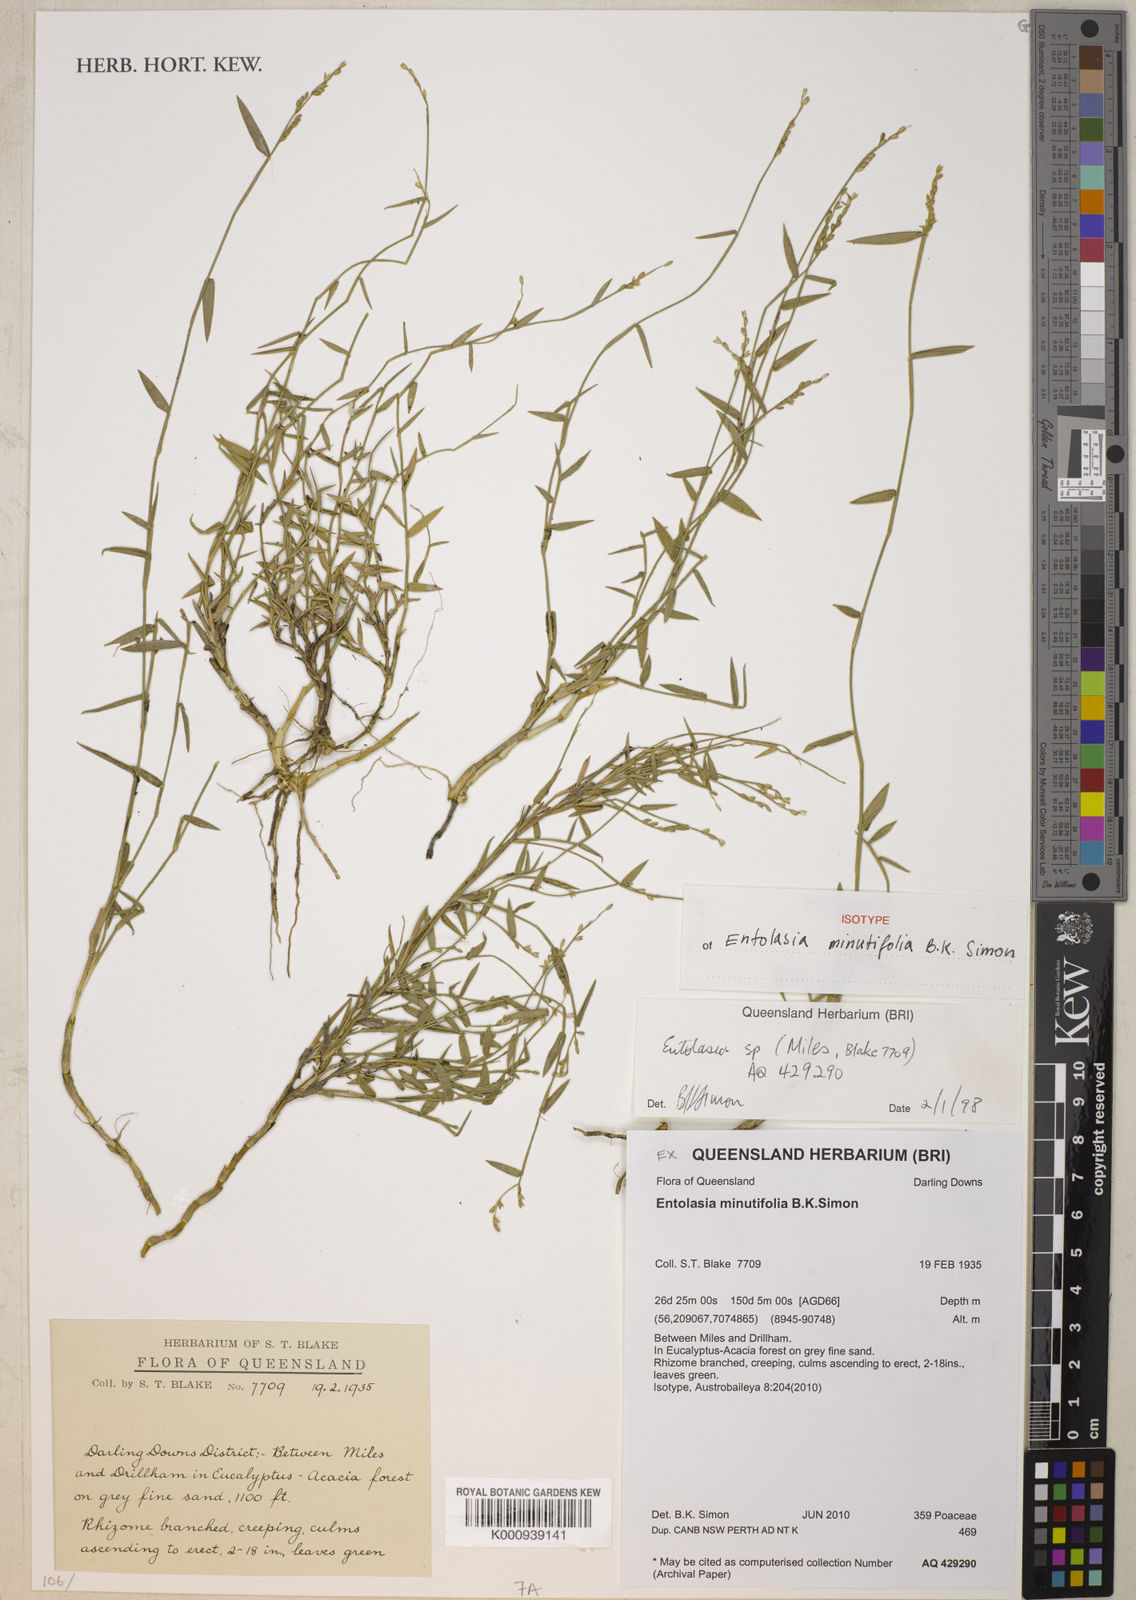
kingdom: Plantae
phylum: Tracheophyta
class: Liliopsida
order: Poales
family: Poaceae
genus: Entolasia
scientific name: Entolasia minutifolia
